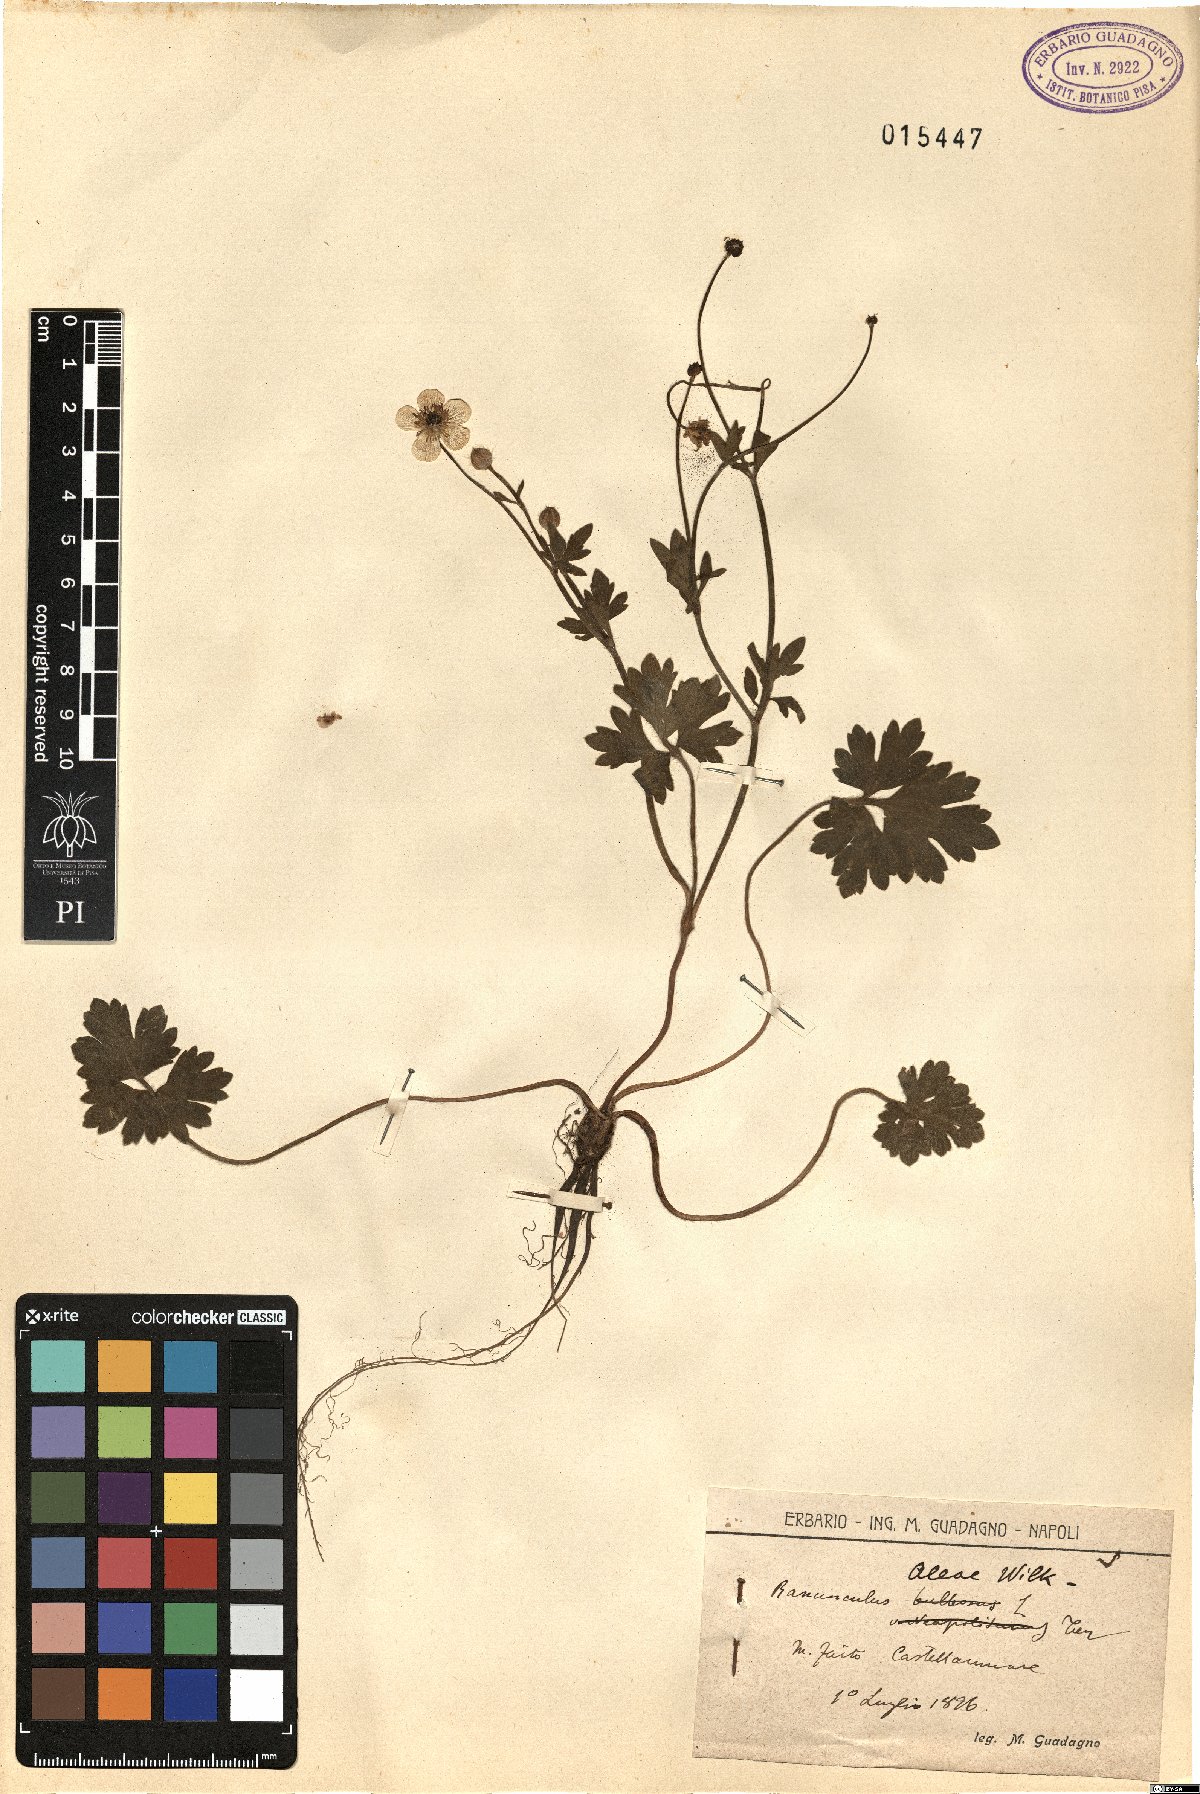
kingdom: Plantae
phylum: Tracheophyta
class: Magnoliopsida
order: Ranunculales
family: Ranunculaceae
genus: Ranunculus
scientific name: Ranunculus neapolitanus
